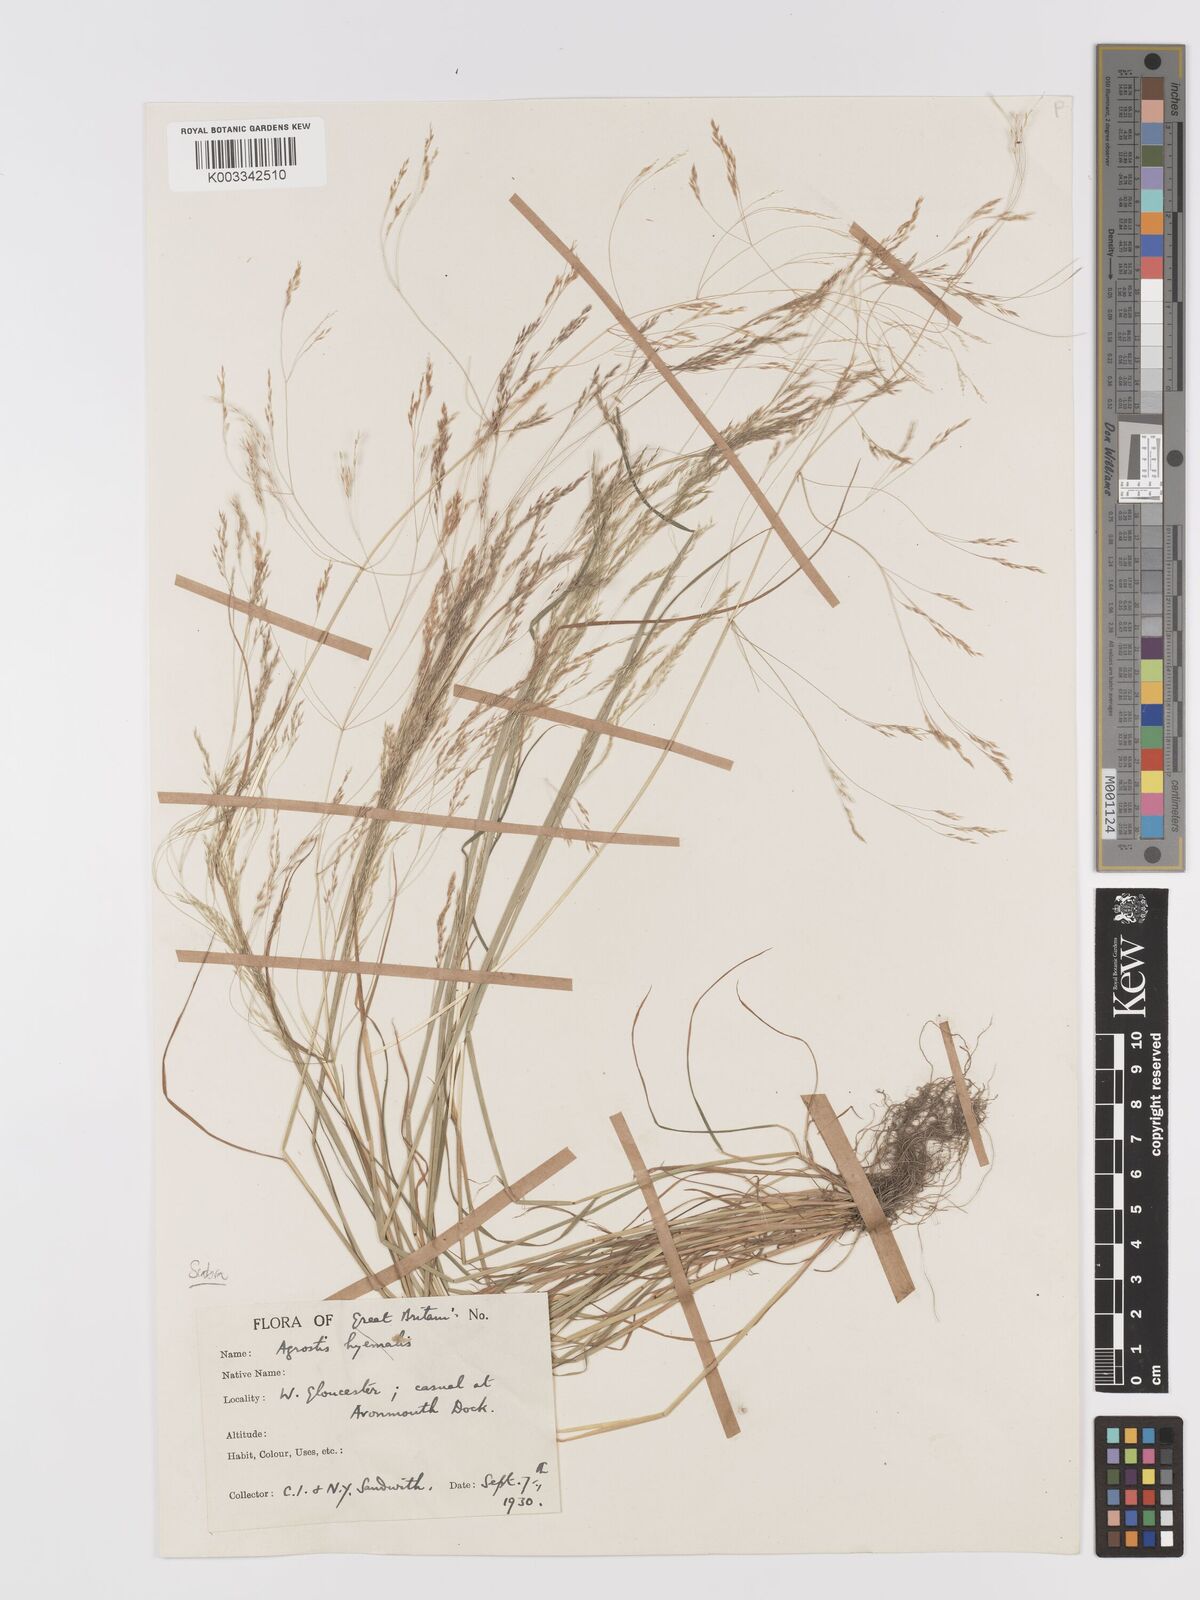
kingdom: Plantae
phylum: Tracheophyta
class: Liliopsida
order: Poales
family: Poaceae
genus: Agrostis
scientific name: Agrostis hyemalis
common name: Small bent
